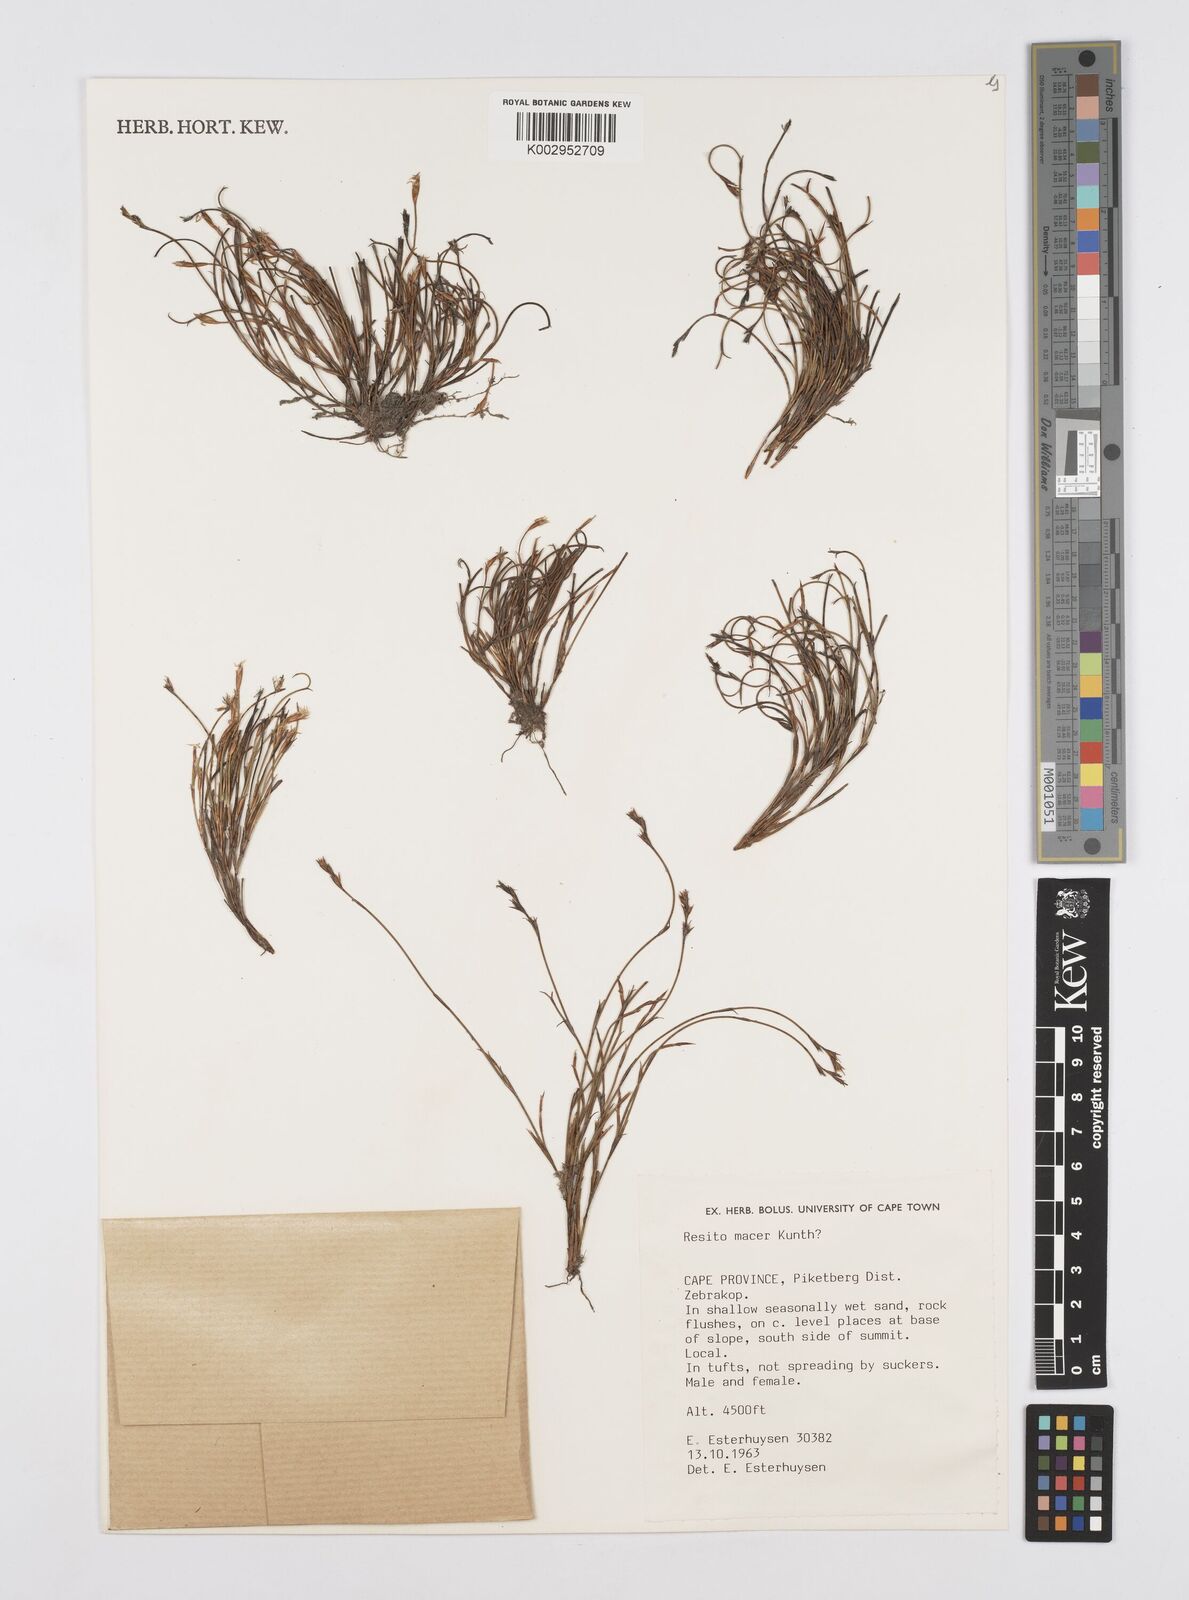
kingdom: Plantae
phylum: Tracheophyta
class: Liliopsida
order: Poales
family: Restionaceae
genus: Restio
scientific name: Restio macer
